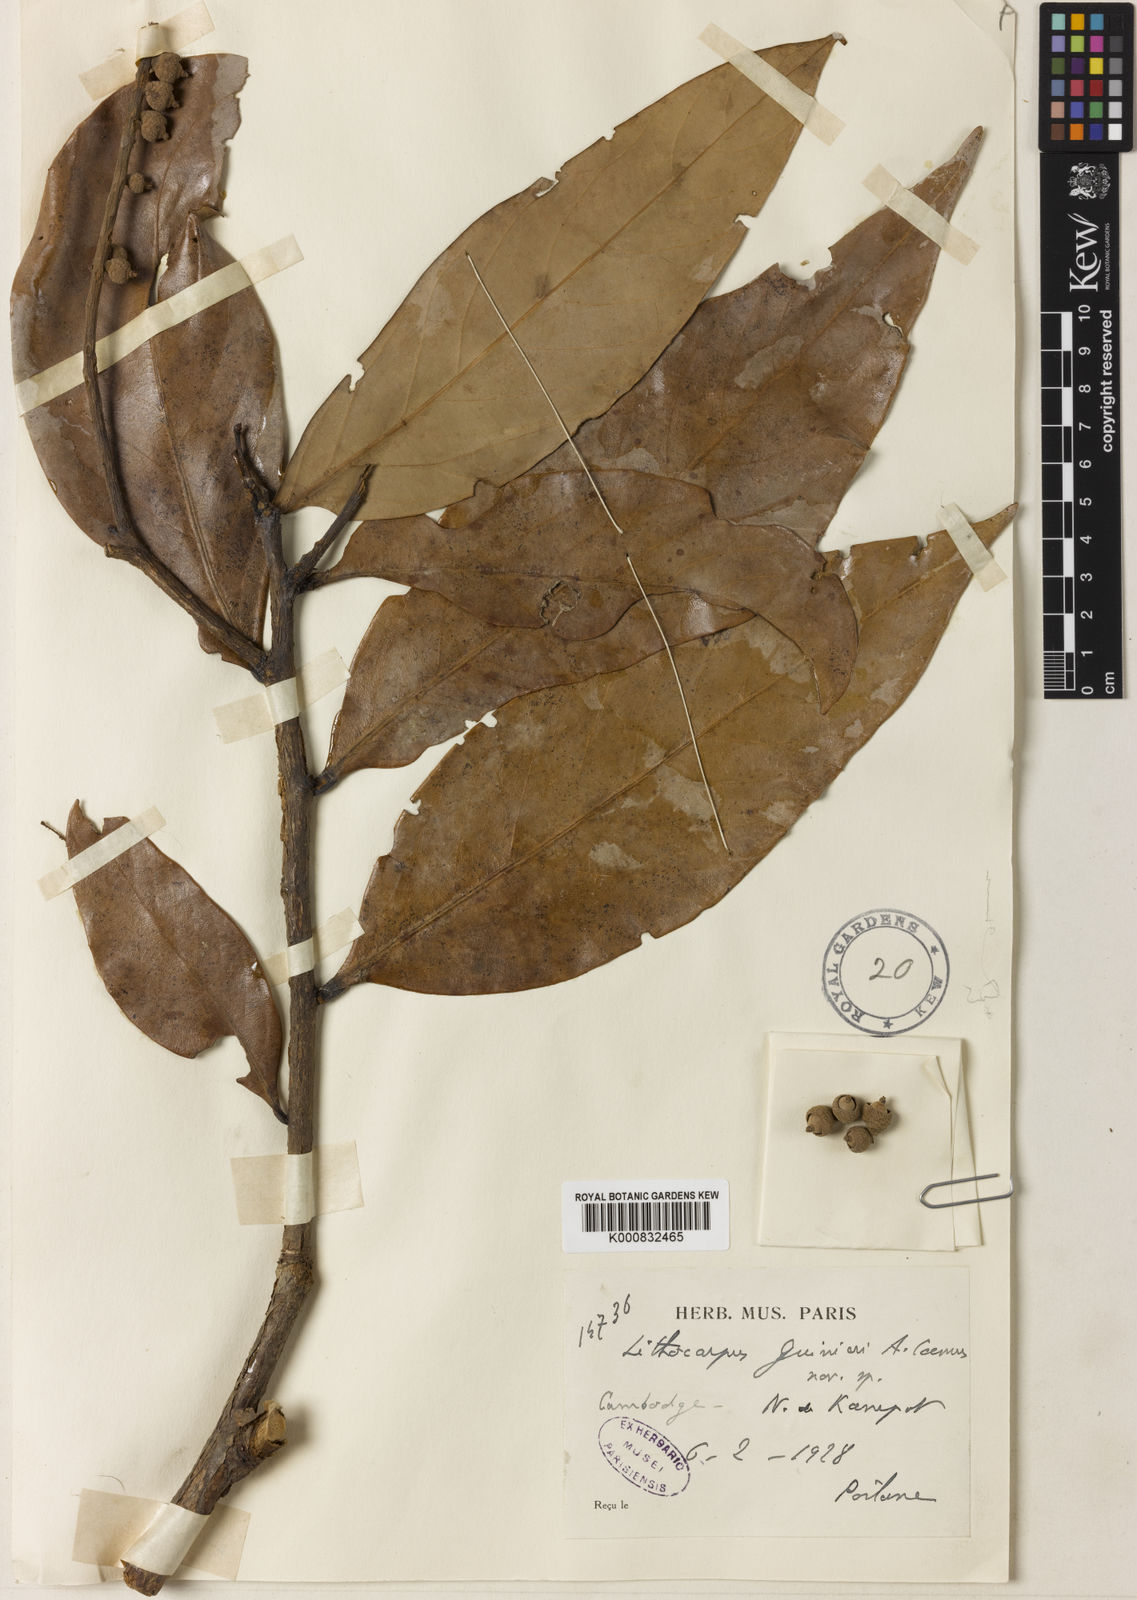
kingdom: Plantae
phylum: Tracheophyta
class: Magnoliopsida
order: Fagales
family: Fagaceae
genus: Lithocarpus
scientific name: Lithocarpus guinieri
